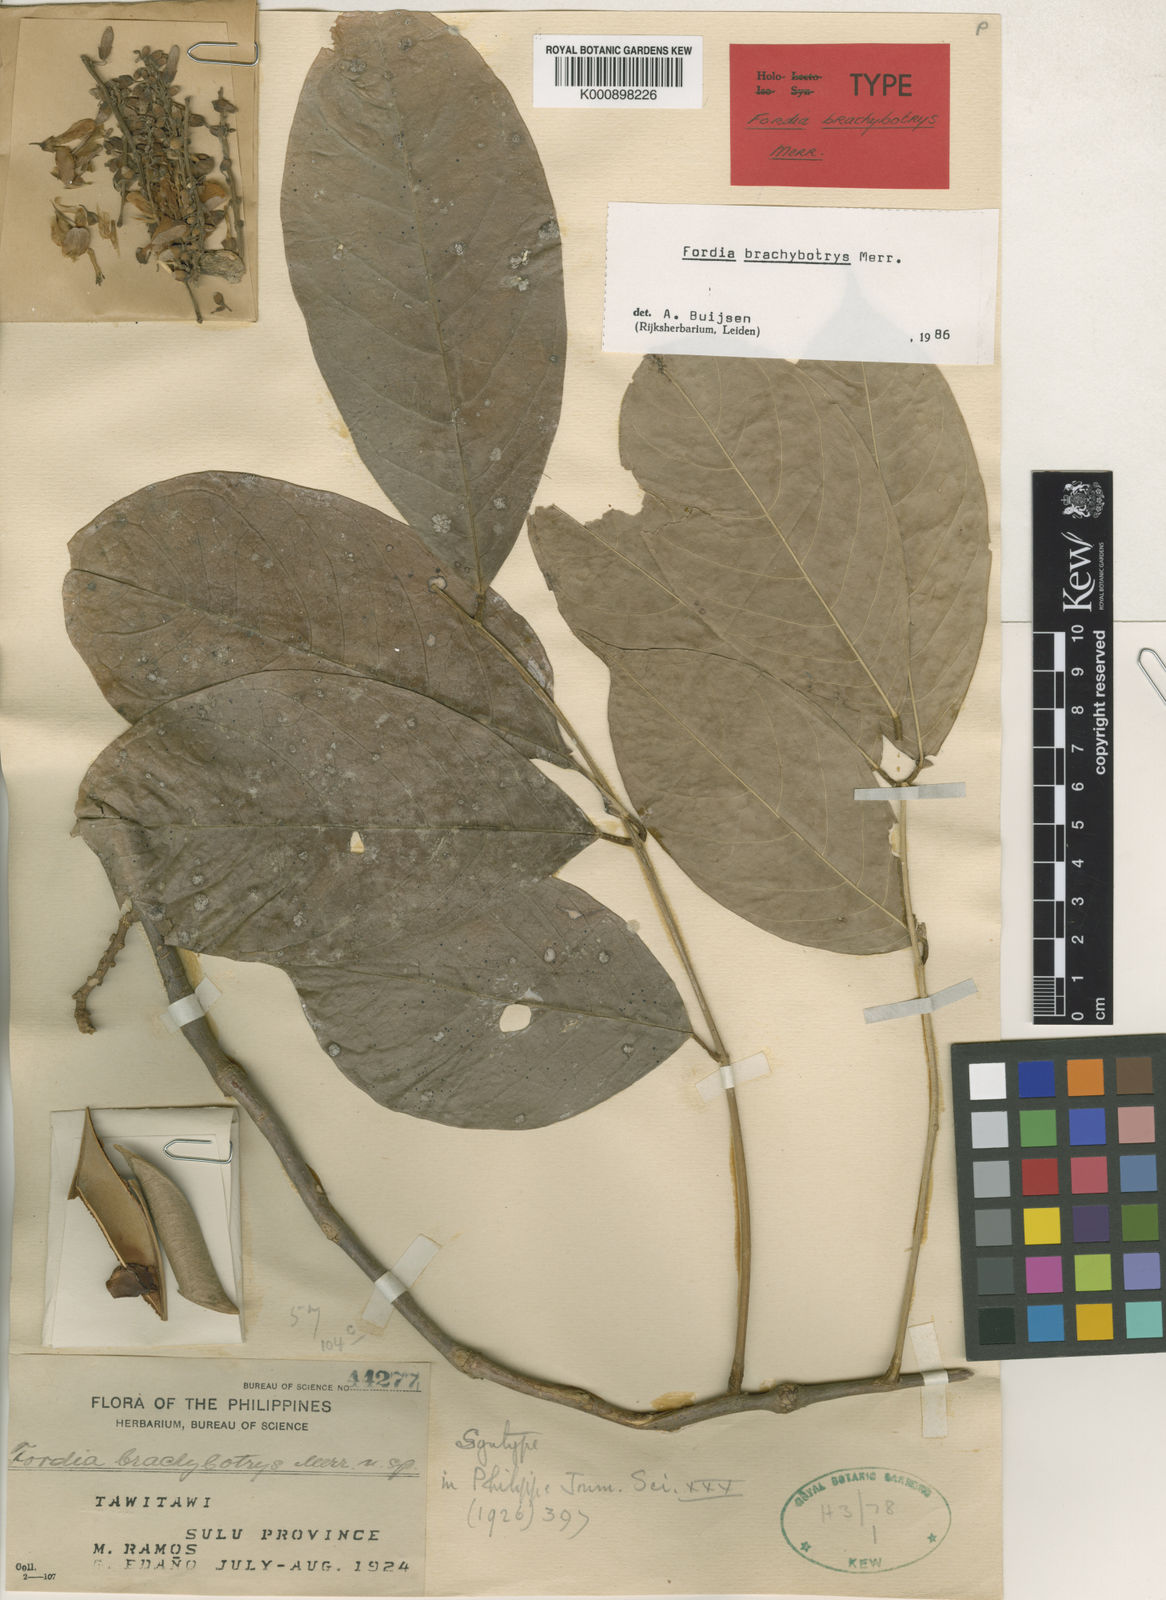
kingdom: Plantae
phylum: Tracheophyta
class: Magnoliopsida
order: Fabales
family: Fabaceae
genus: Fordia
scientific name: Fordia brachybotrys
